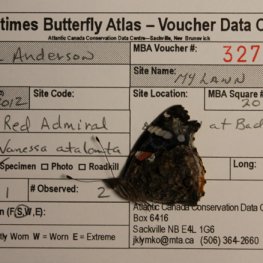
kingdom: Animalia
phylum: Arthropoda
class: Insecta
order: Lepidoptera
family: Nymphalidae
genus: Vanessa
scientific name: Vanessa atalanta
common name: Red Admiral
